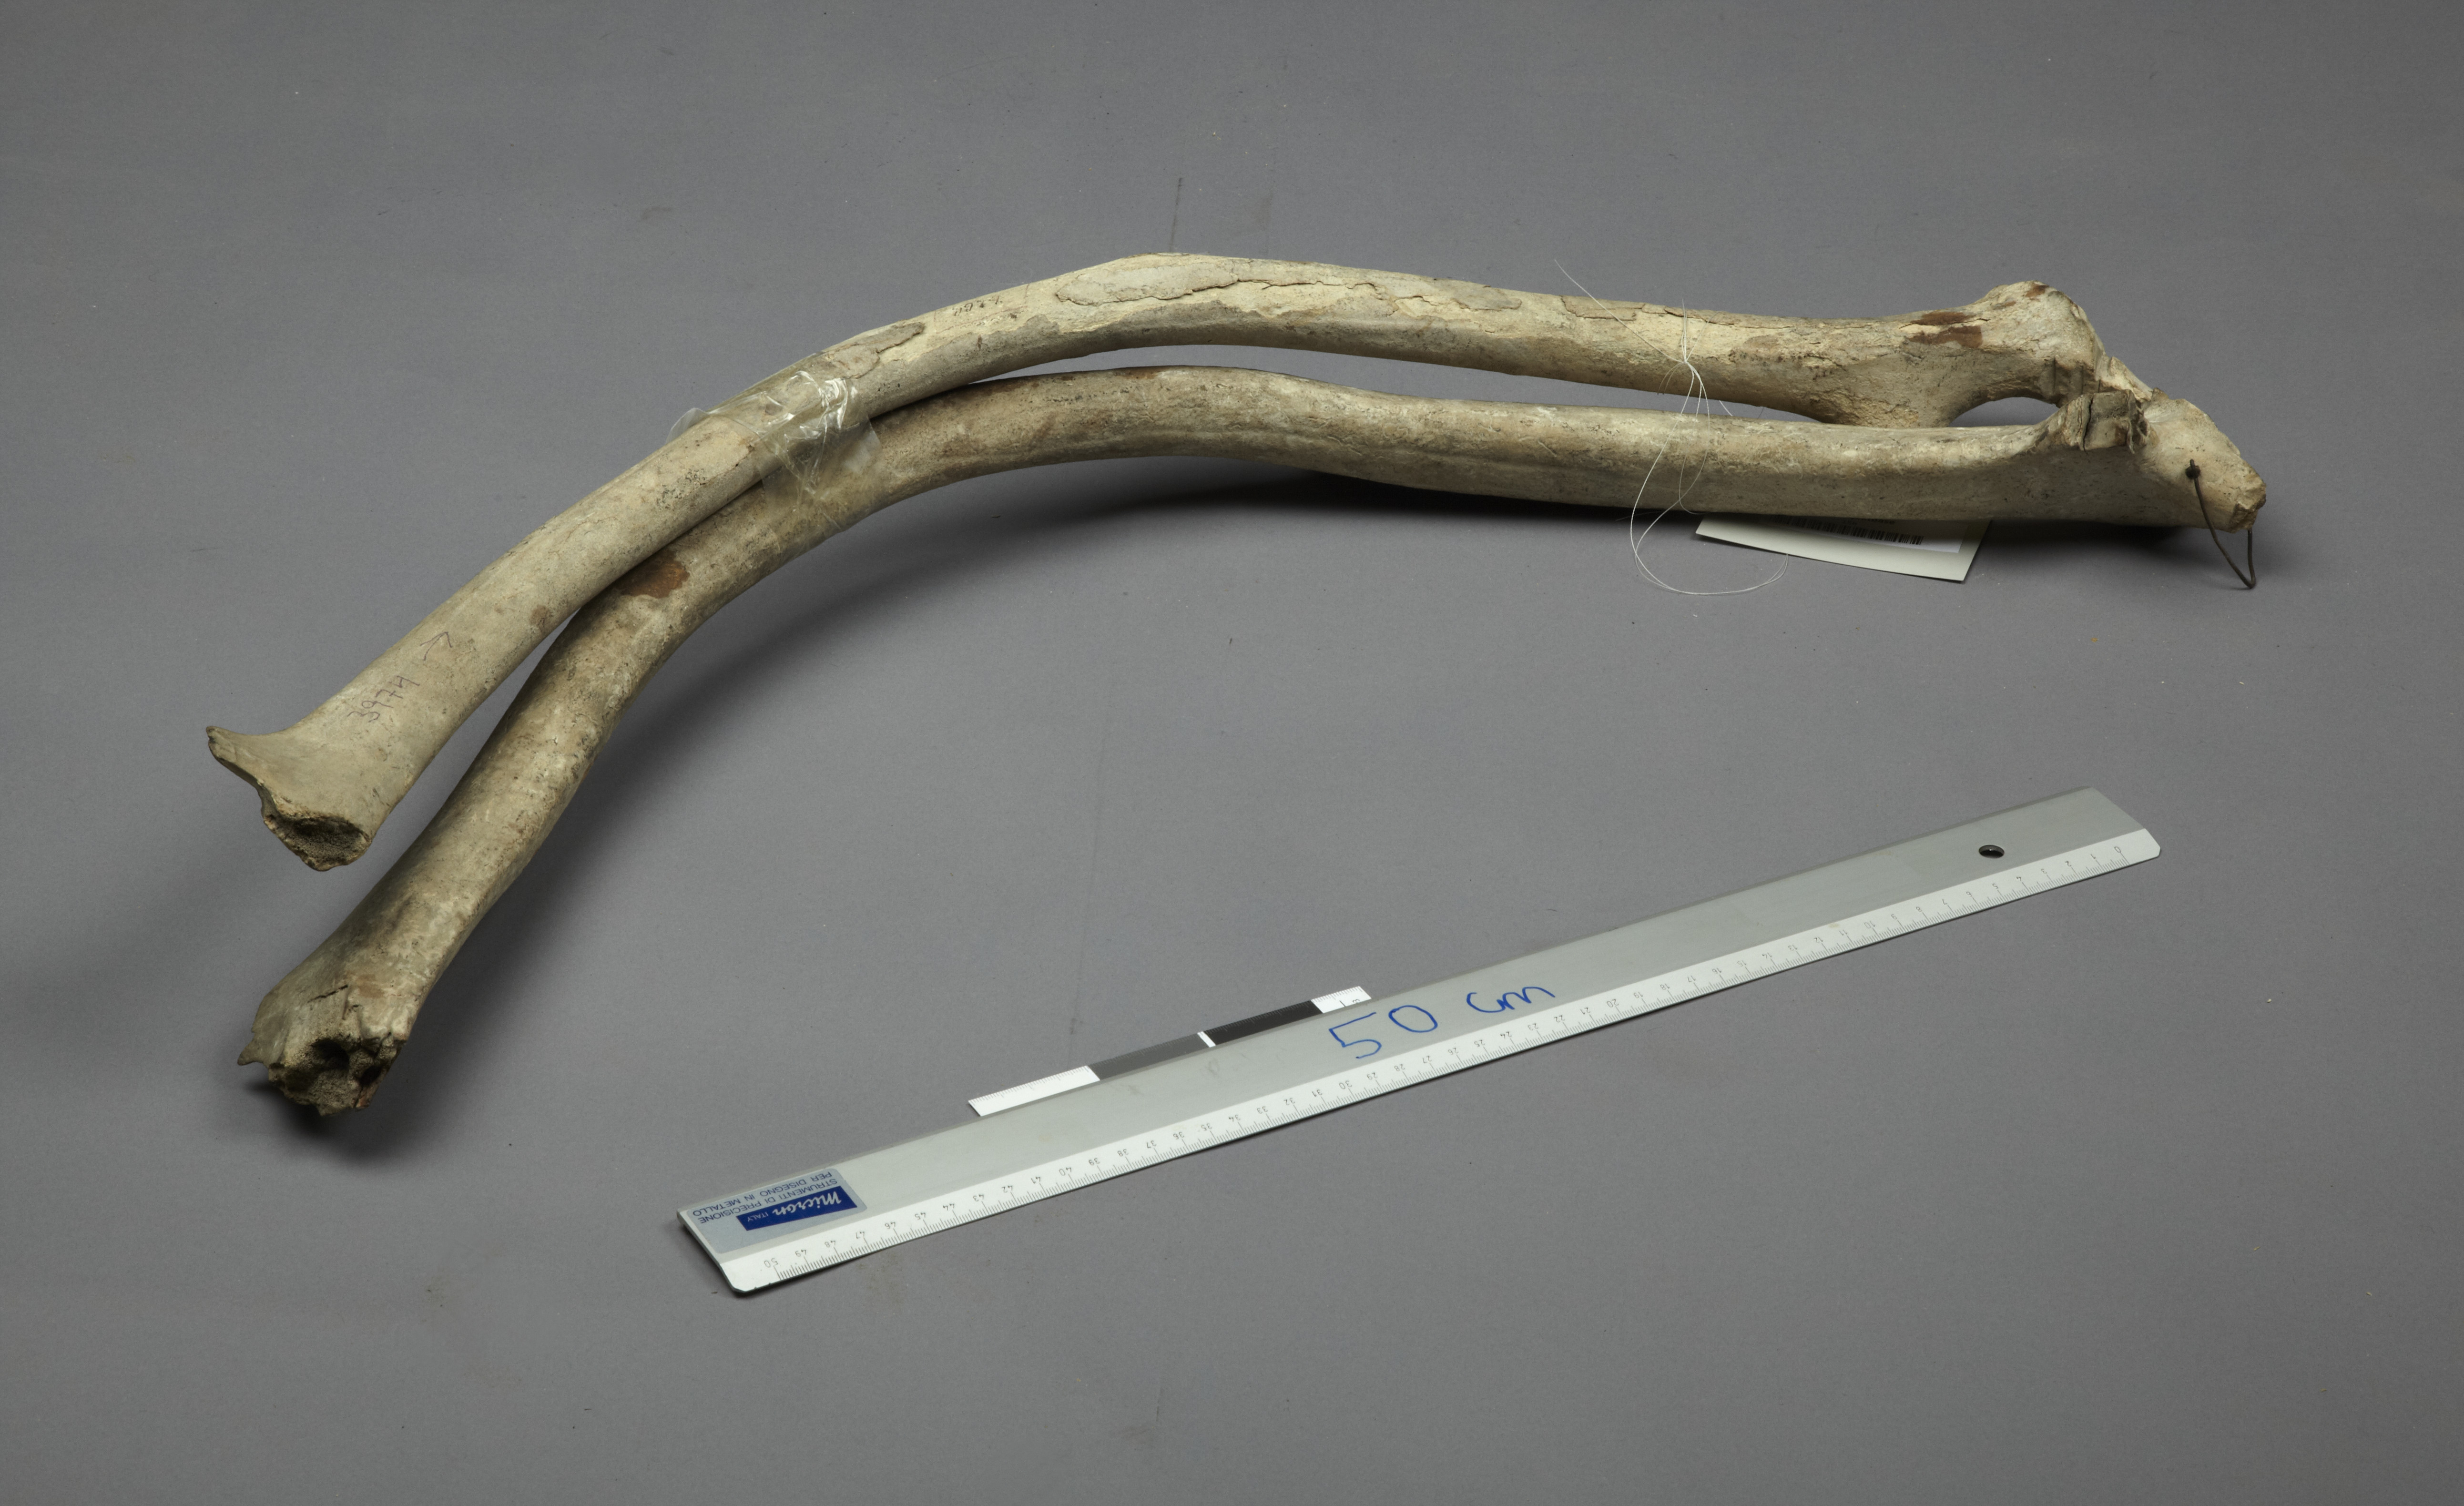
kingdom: Animalia
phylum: Chordata
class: Mammalia
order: Artiodactyla
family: Cervidae
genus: Rangifer
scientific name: Rangifer tarandus
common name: Reindeer
